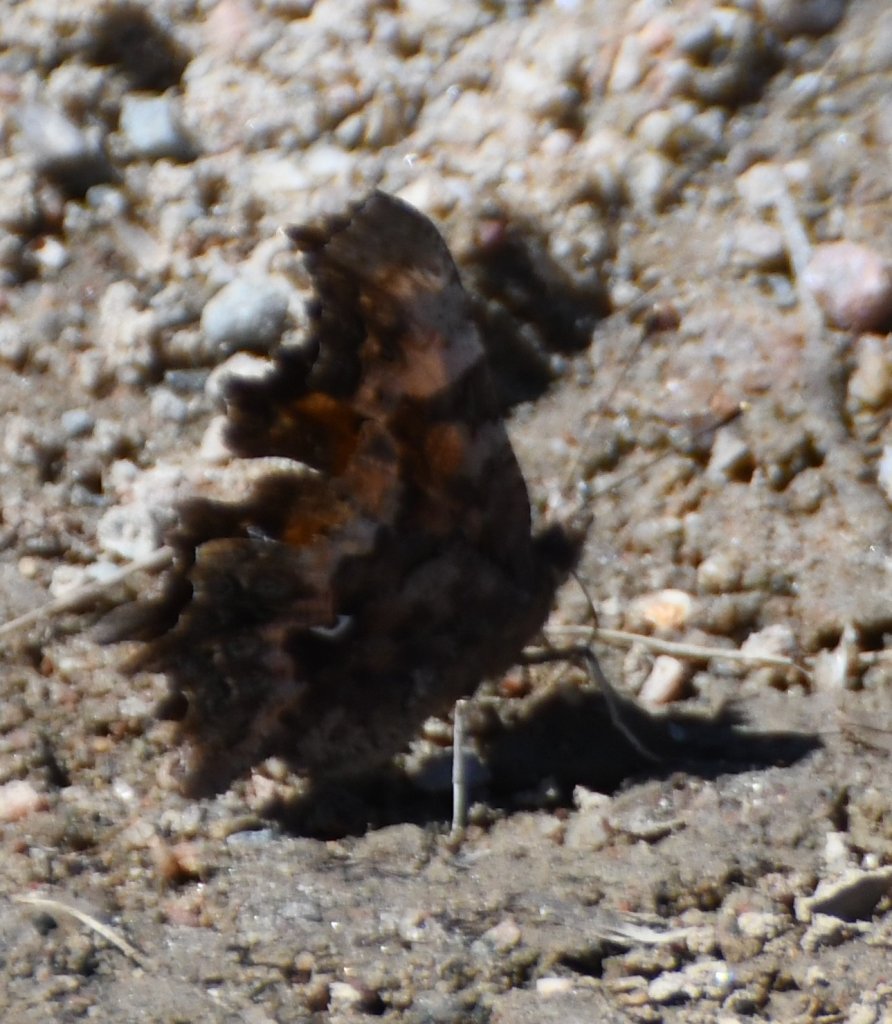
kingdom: Animalia
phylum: Arthropoda
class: Insecta
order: Lepidoptera
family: Nymphalidae
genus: Polygonia
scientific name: Polygonia faunus
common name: Green Comma
